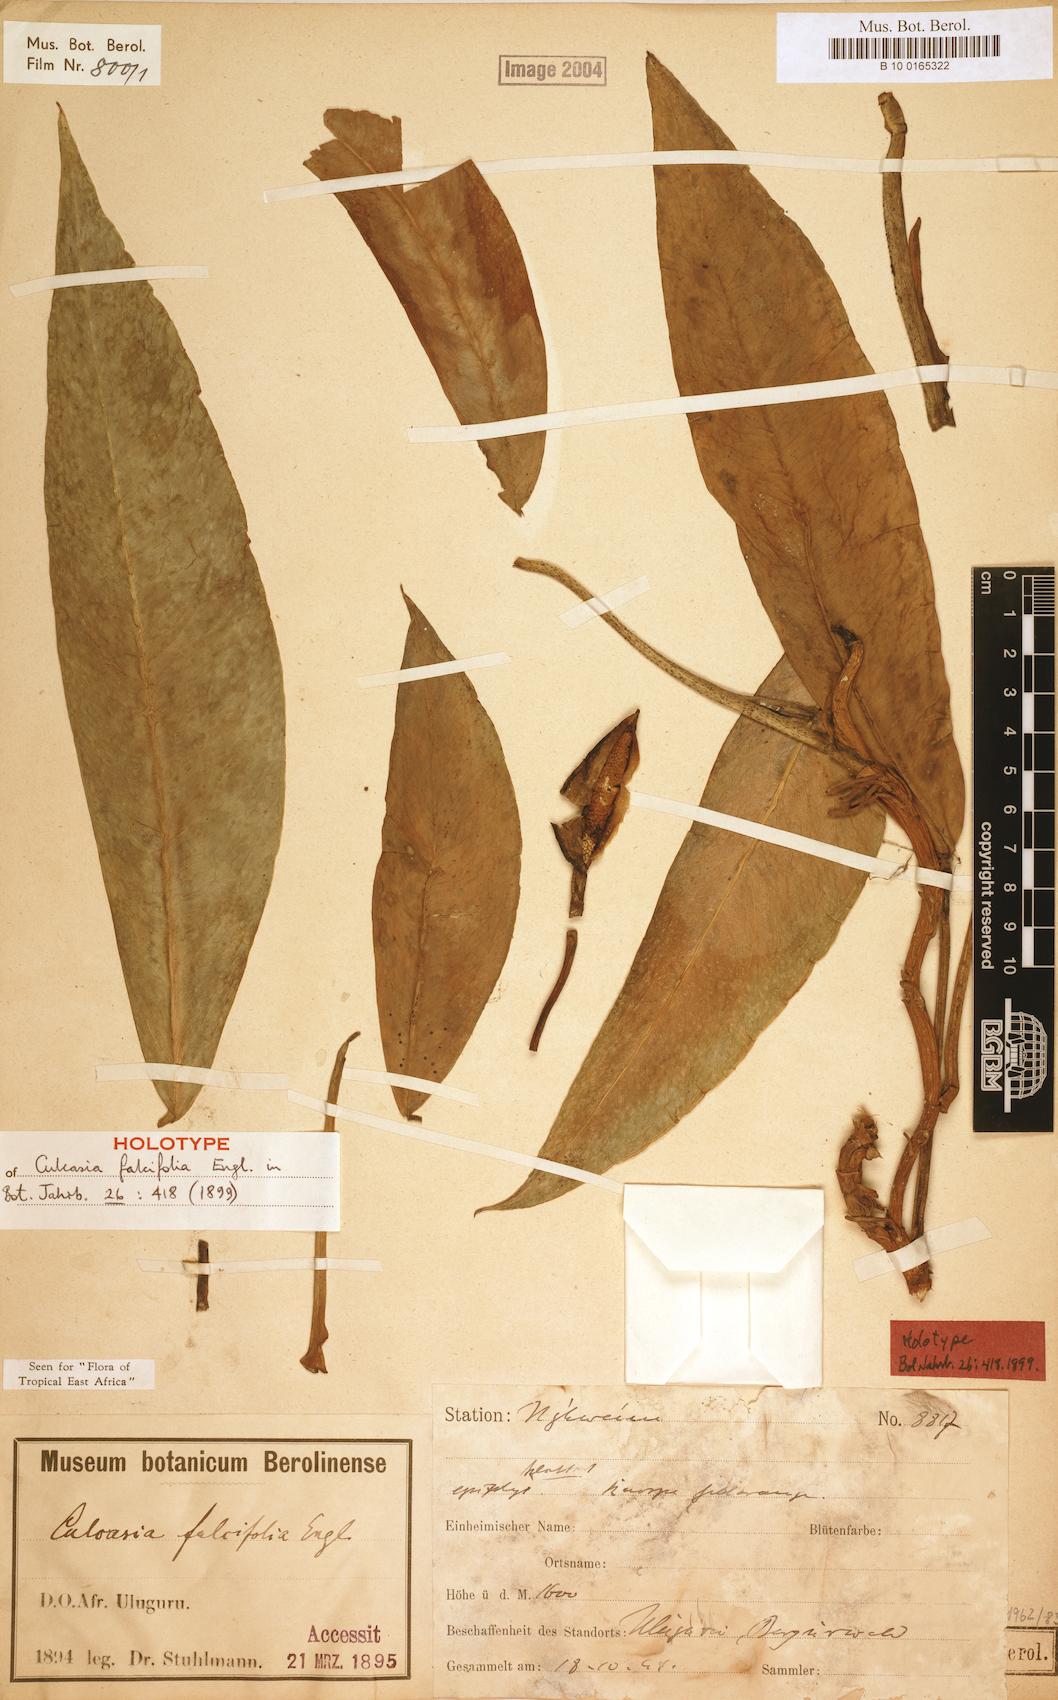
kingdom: Plantae
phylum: Tracheophyta
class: Liliopsida
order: Alismatales
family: Araceae
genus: Culcasia
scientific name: Culcasia falcifolia
